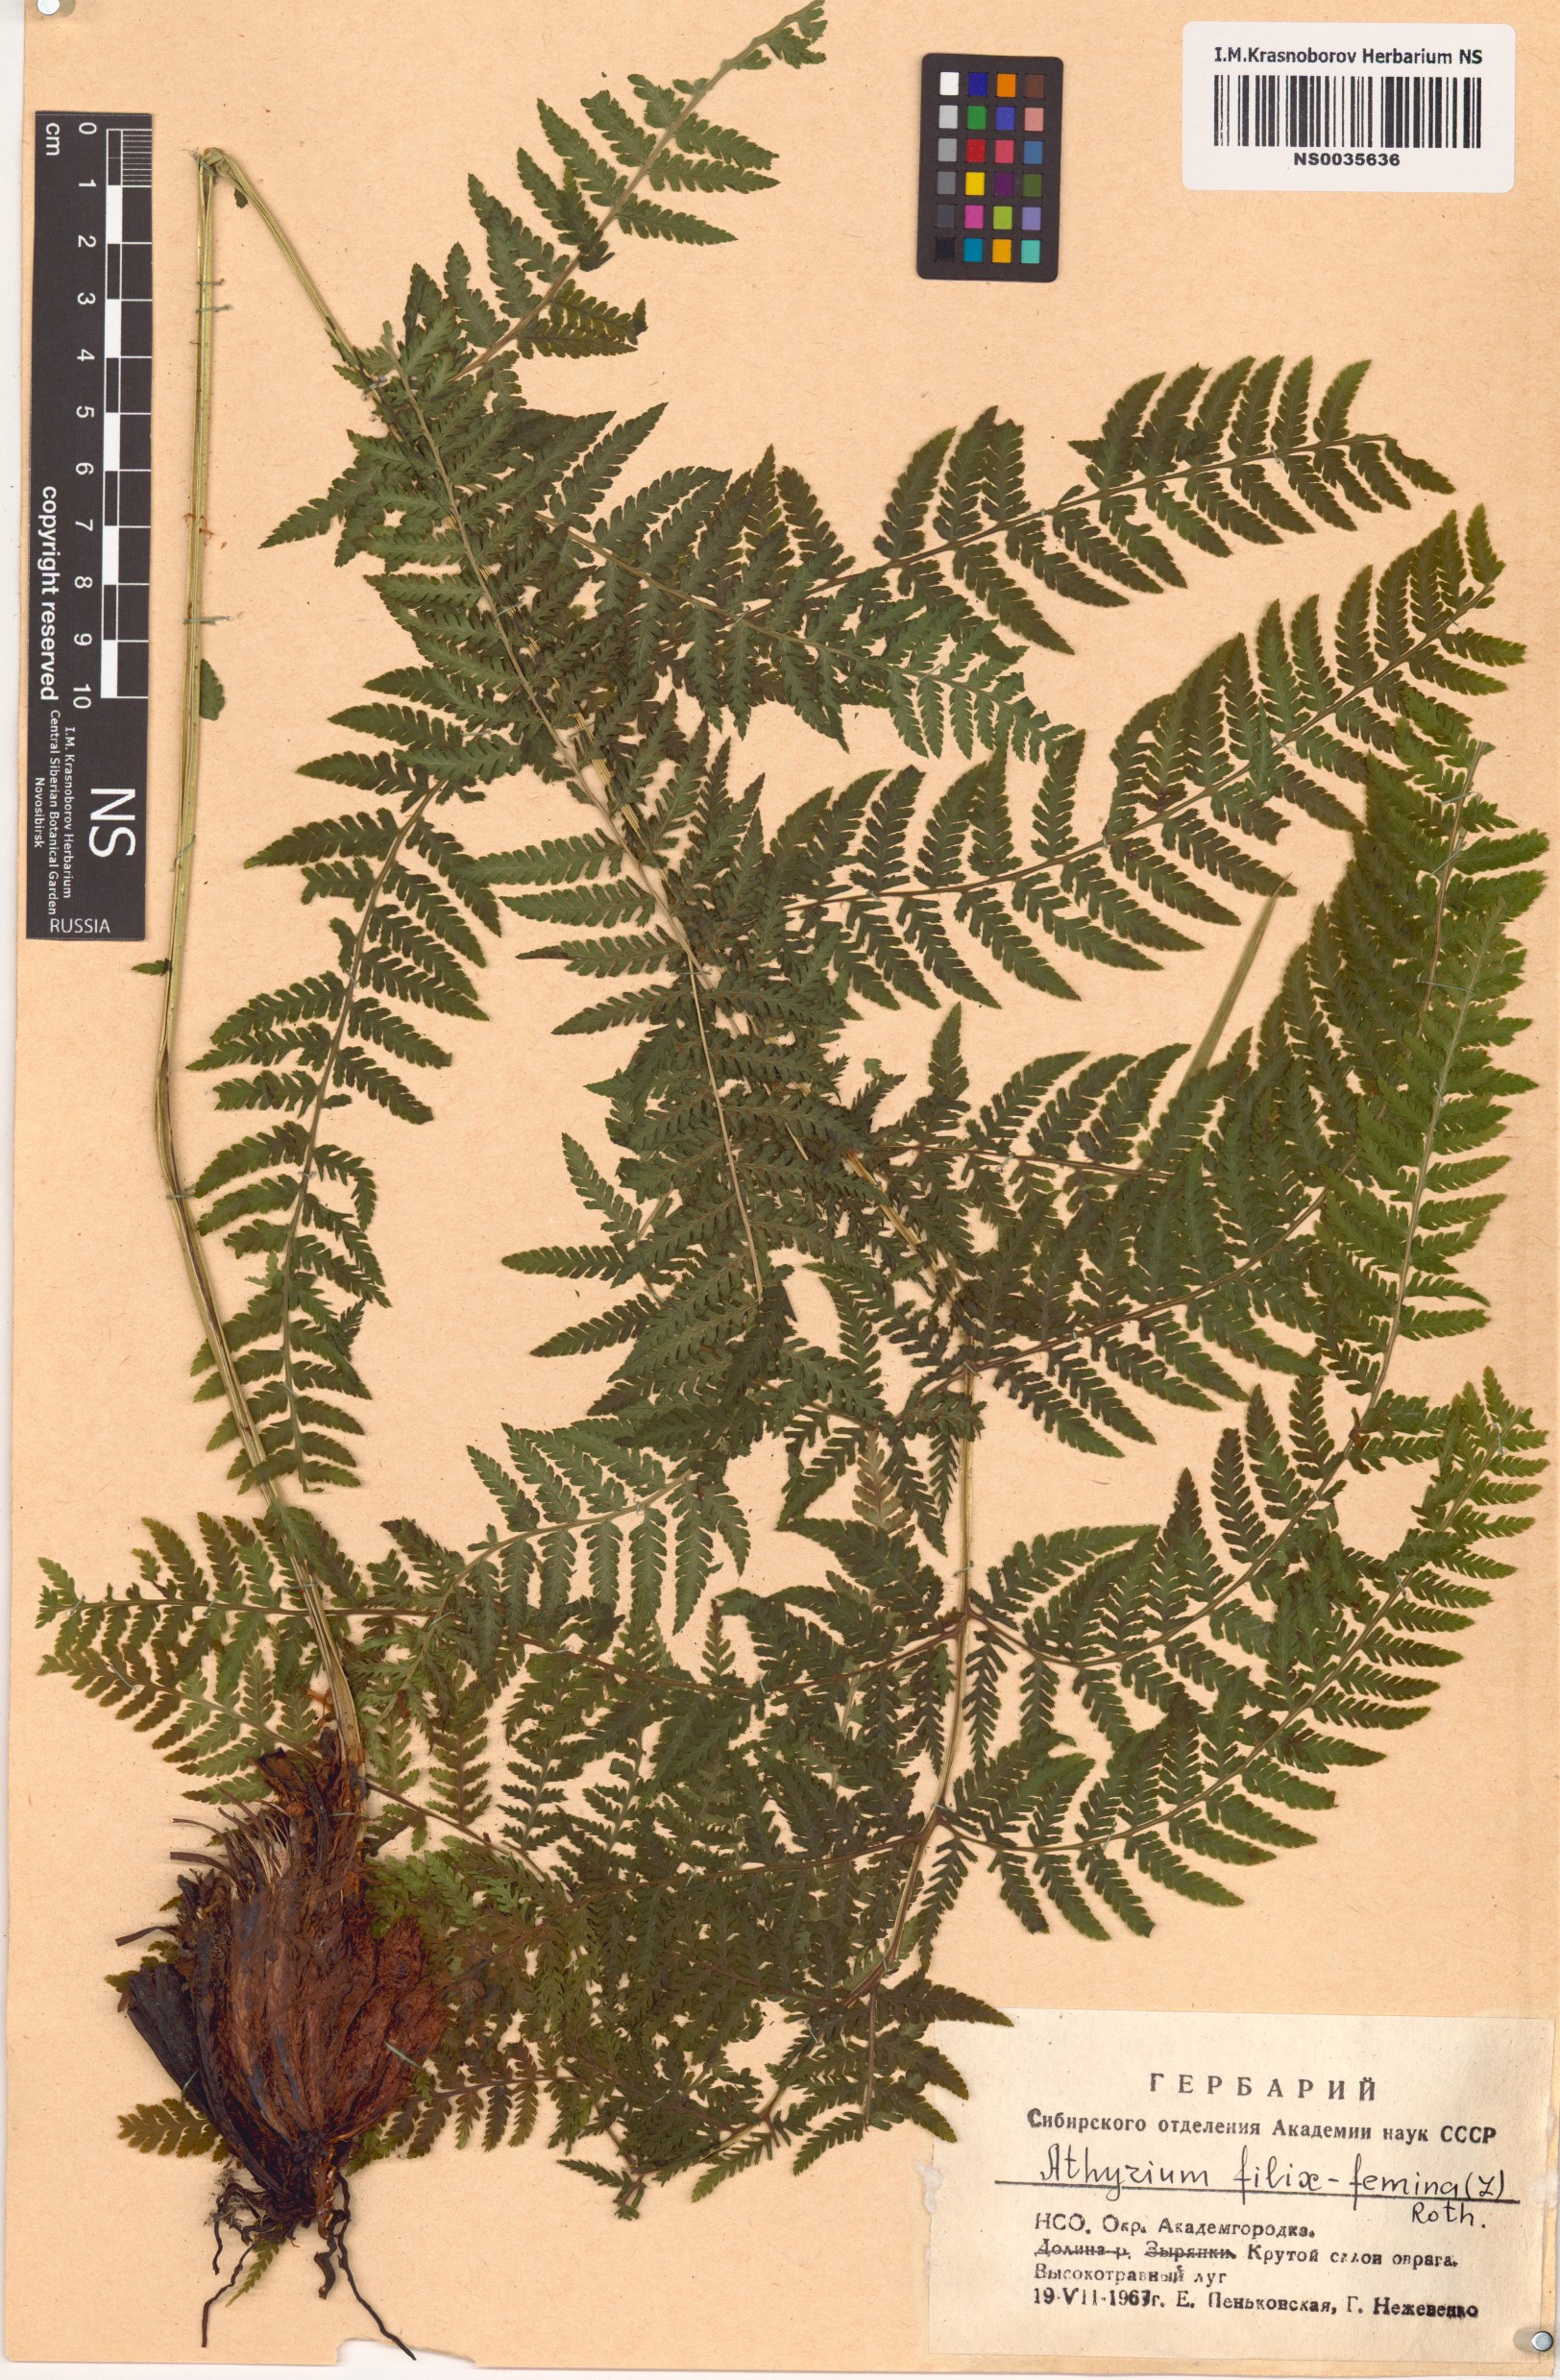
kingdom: Plantae
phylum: Tracheophyta
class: Polypodiopsida
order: Polypodiales
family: Athyriaceae
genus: Athyrium
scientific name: Athyrium filix-femina
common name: Lady fern
